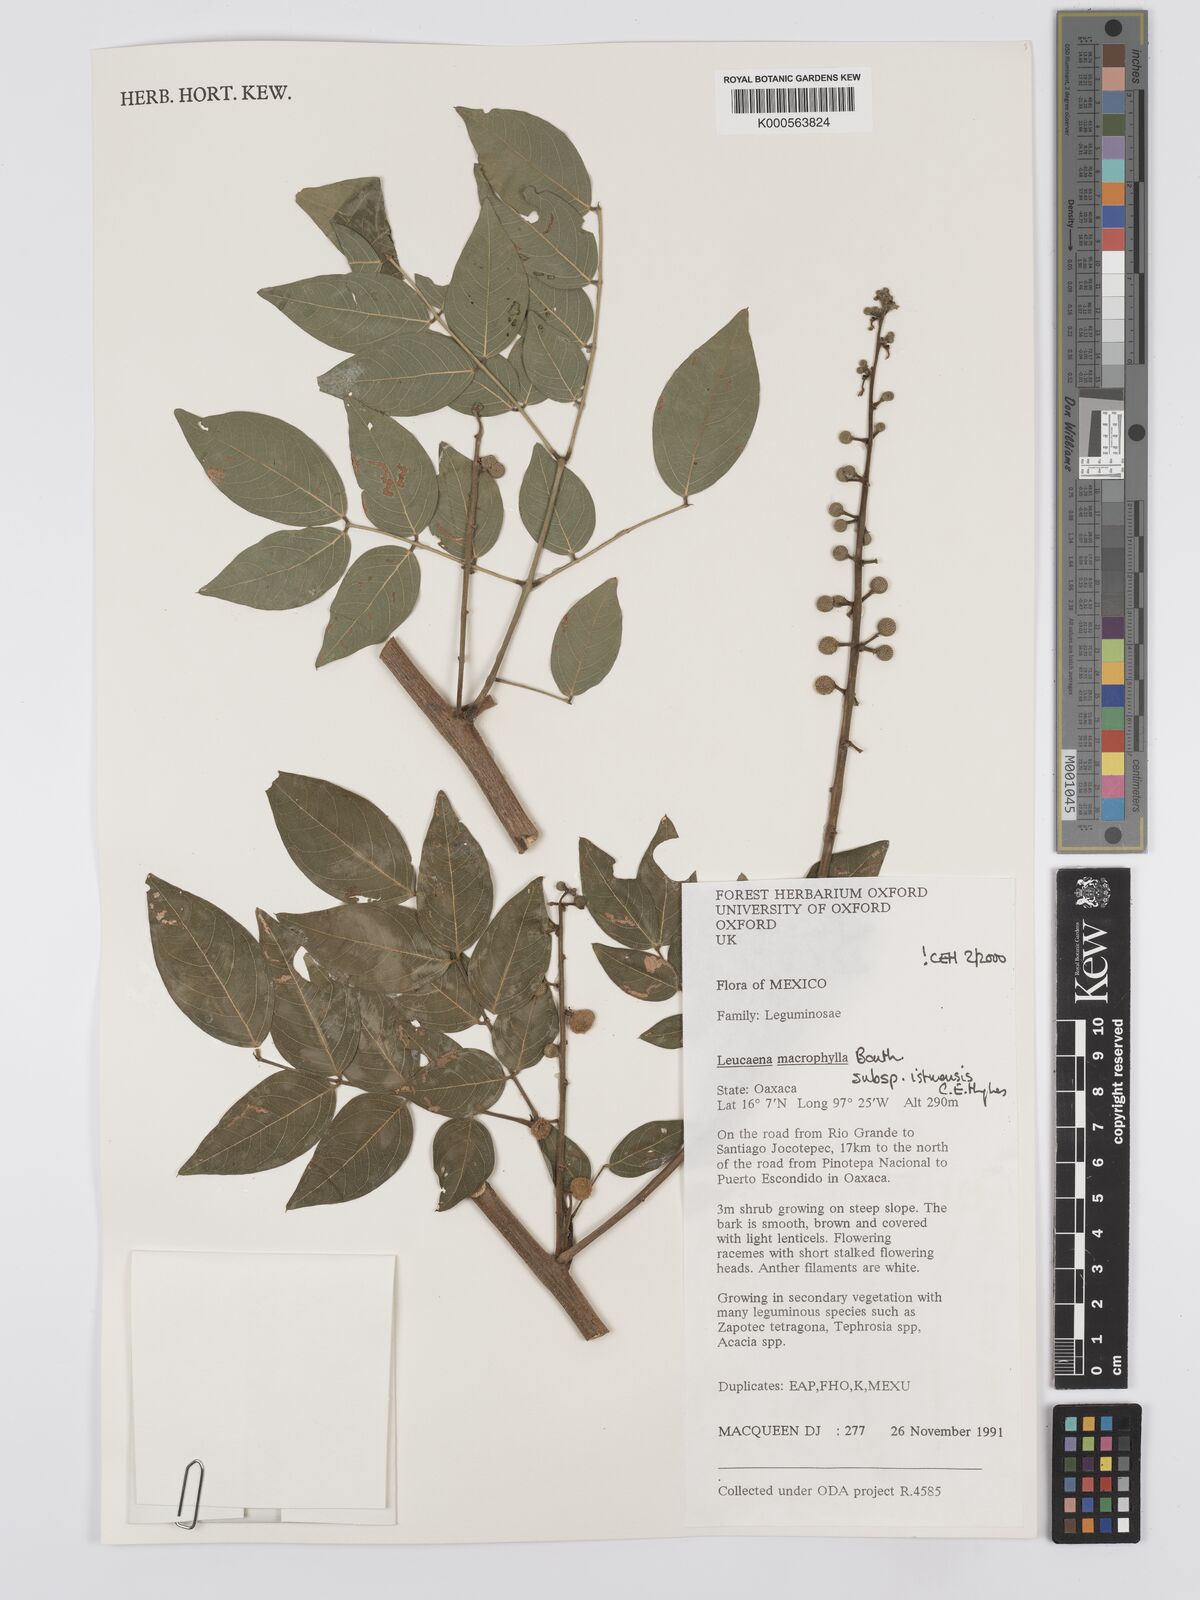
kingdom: Plantae
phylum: Tracheophyta
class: Magnoliopsida
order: Fabales
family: Fabaceae
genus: Leucaena
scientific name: Leucaena macrophylla
